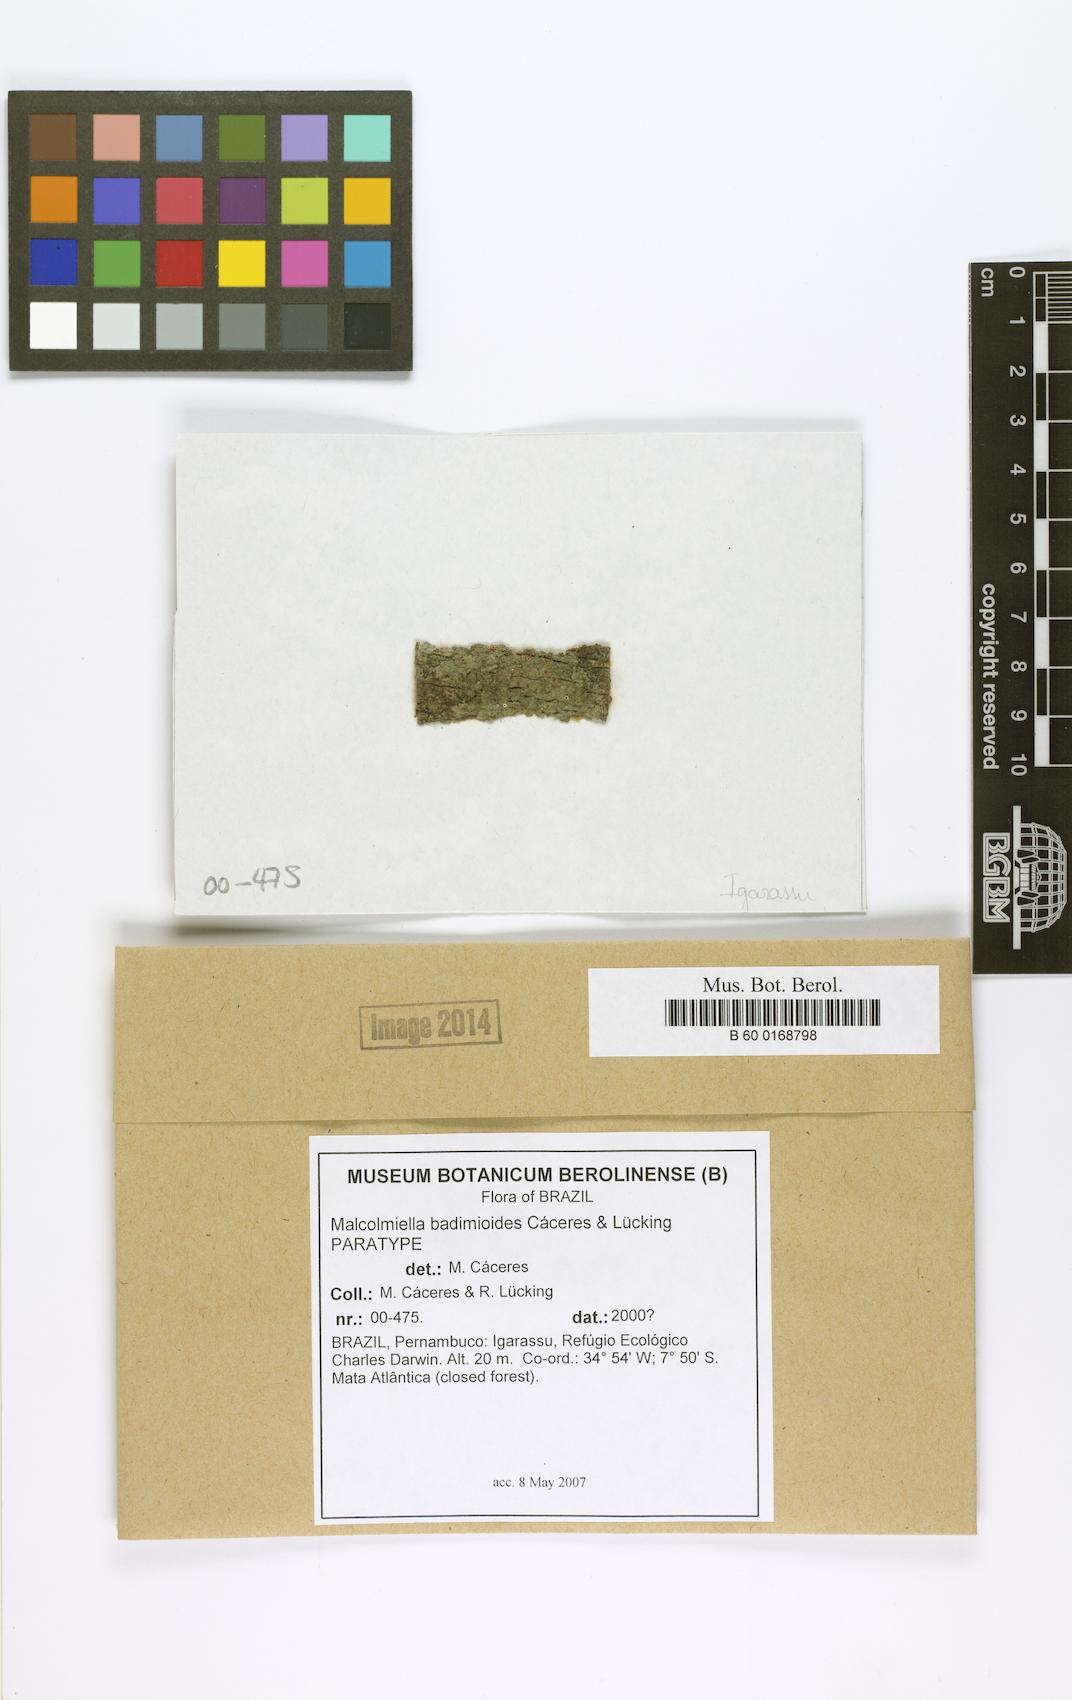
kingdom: Fungi
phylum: Ascomycota
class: Lecanoromycetes
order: Lecanorales
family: Malmideaceae
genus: Malmidea
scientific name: Malmidea badimioides
